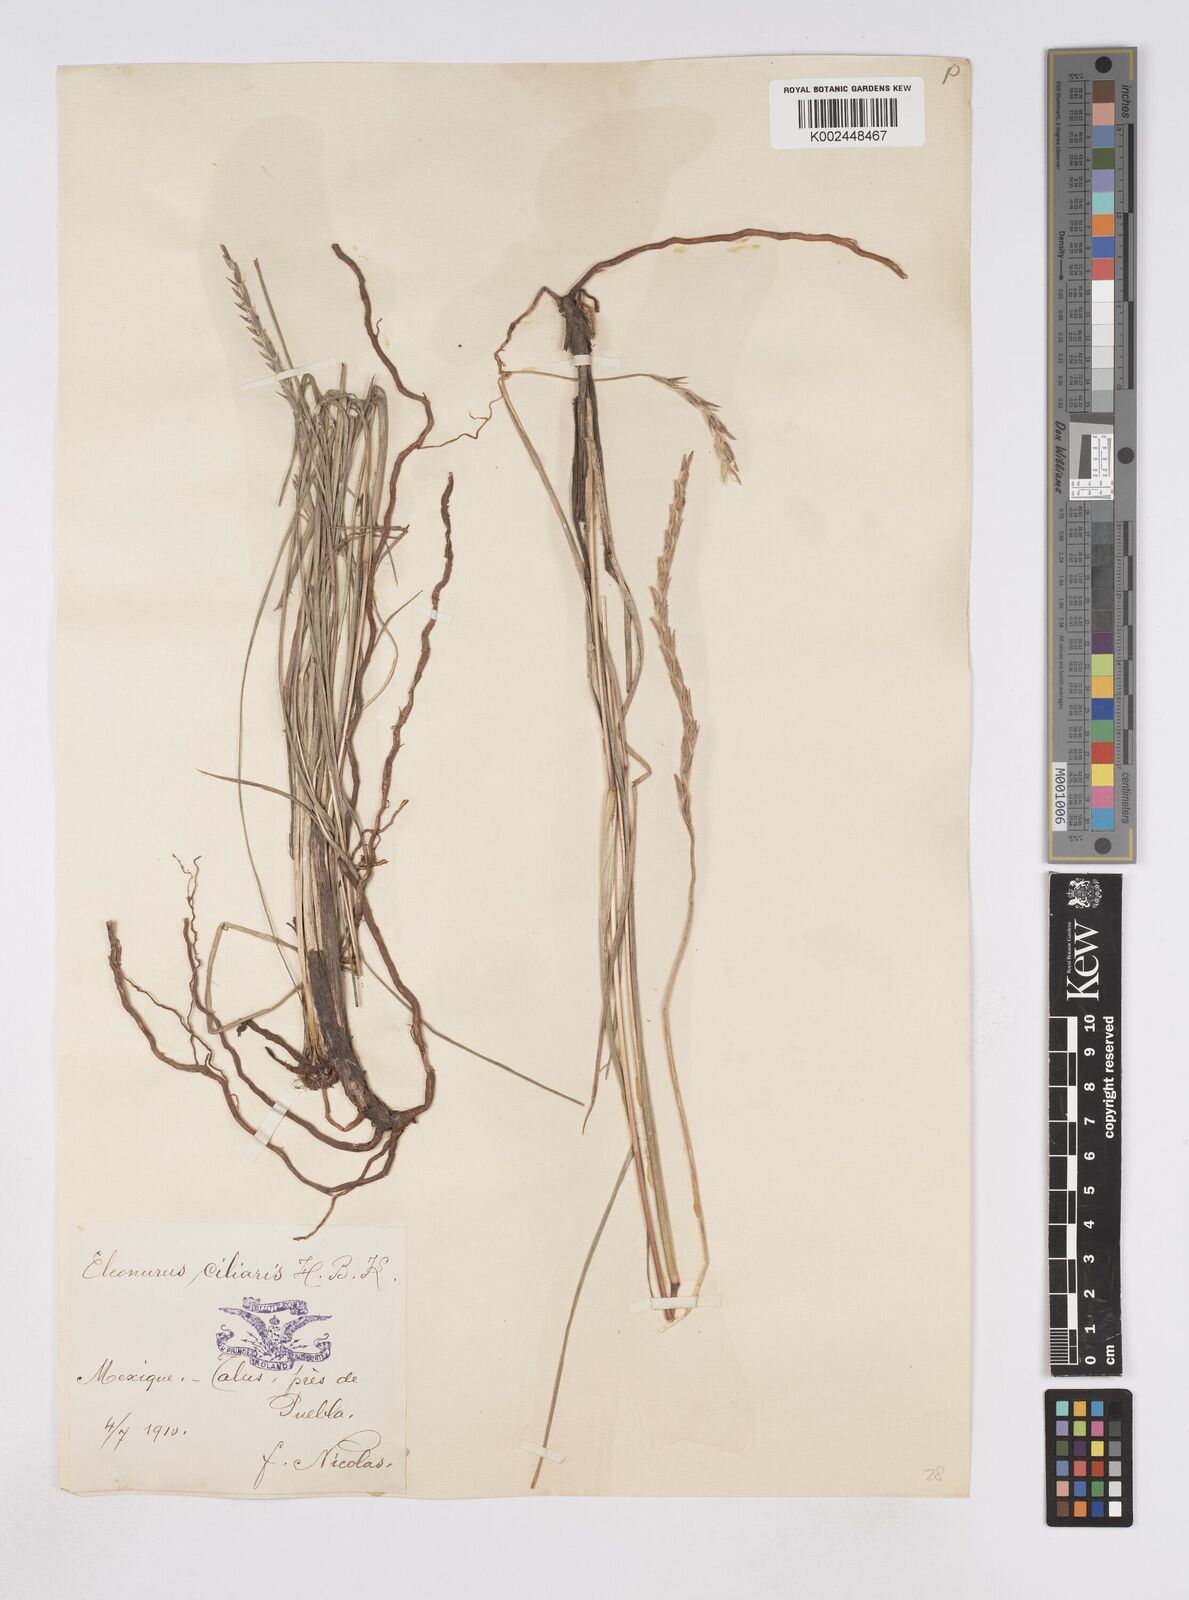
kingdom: Plantae
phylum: Tracheophyta
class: Liliopsida
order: Poales
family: Poaceae
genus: Elionurus
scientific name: Elionurus ciliaris
